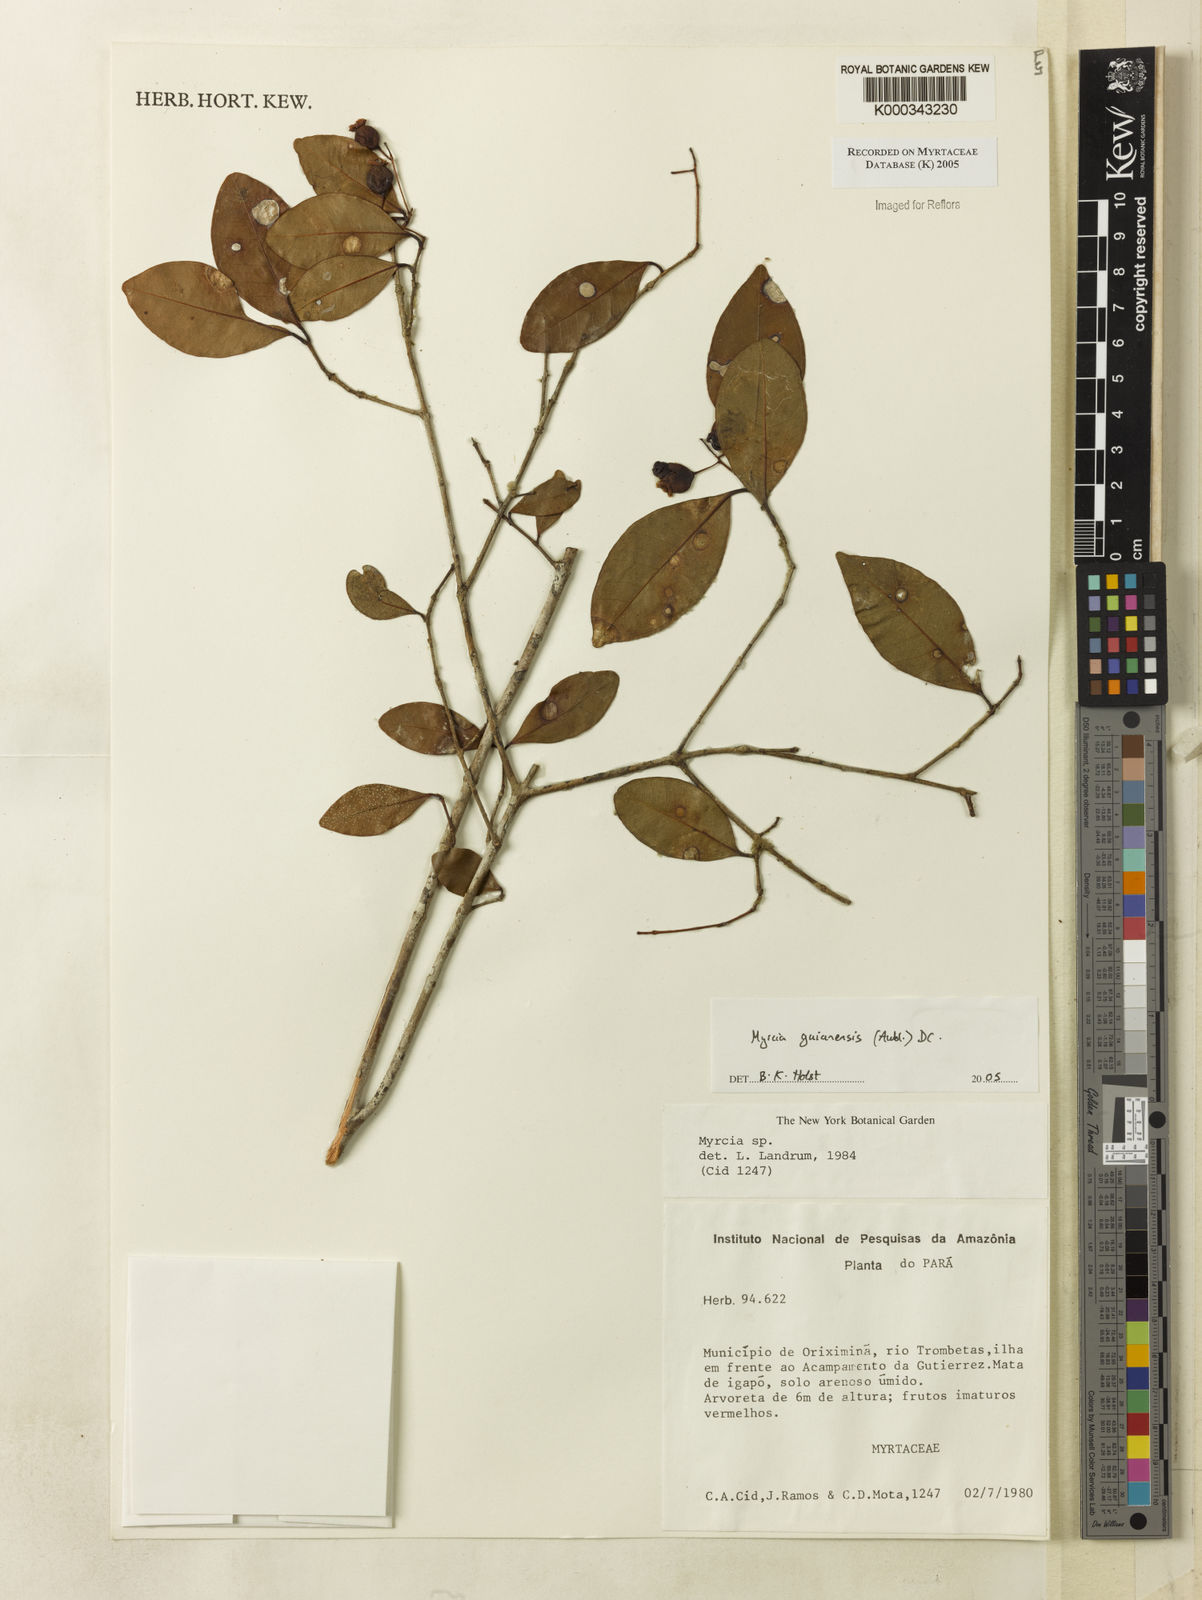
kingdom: Plantae
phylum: Tracheophyta
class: Magnoliopsida
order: Myrtales
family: Myrtaceae
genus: Myrcia
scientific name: Myrcia guianensis
